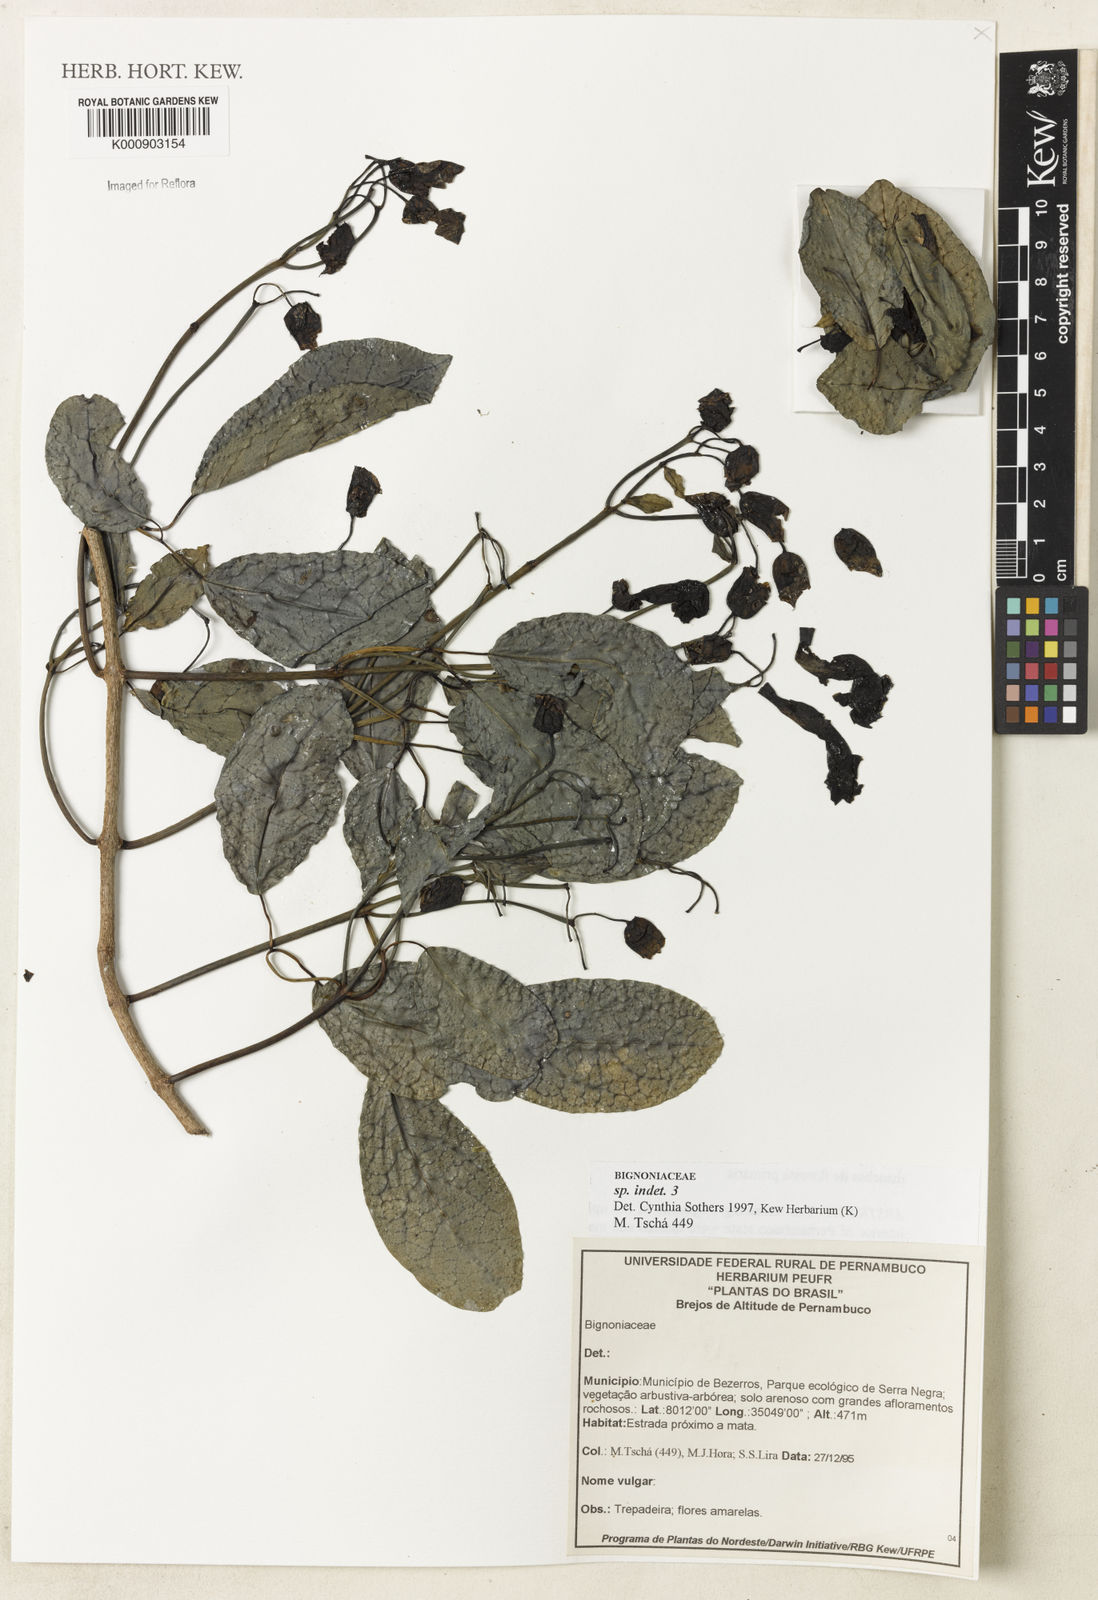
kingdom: Plantae
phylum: Tracheophyta
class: Magnoliopsida
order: Lamiales
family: Bignoniaceae
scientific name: Bignoniaceae
